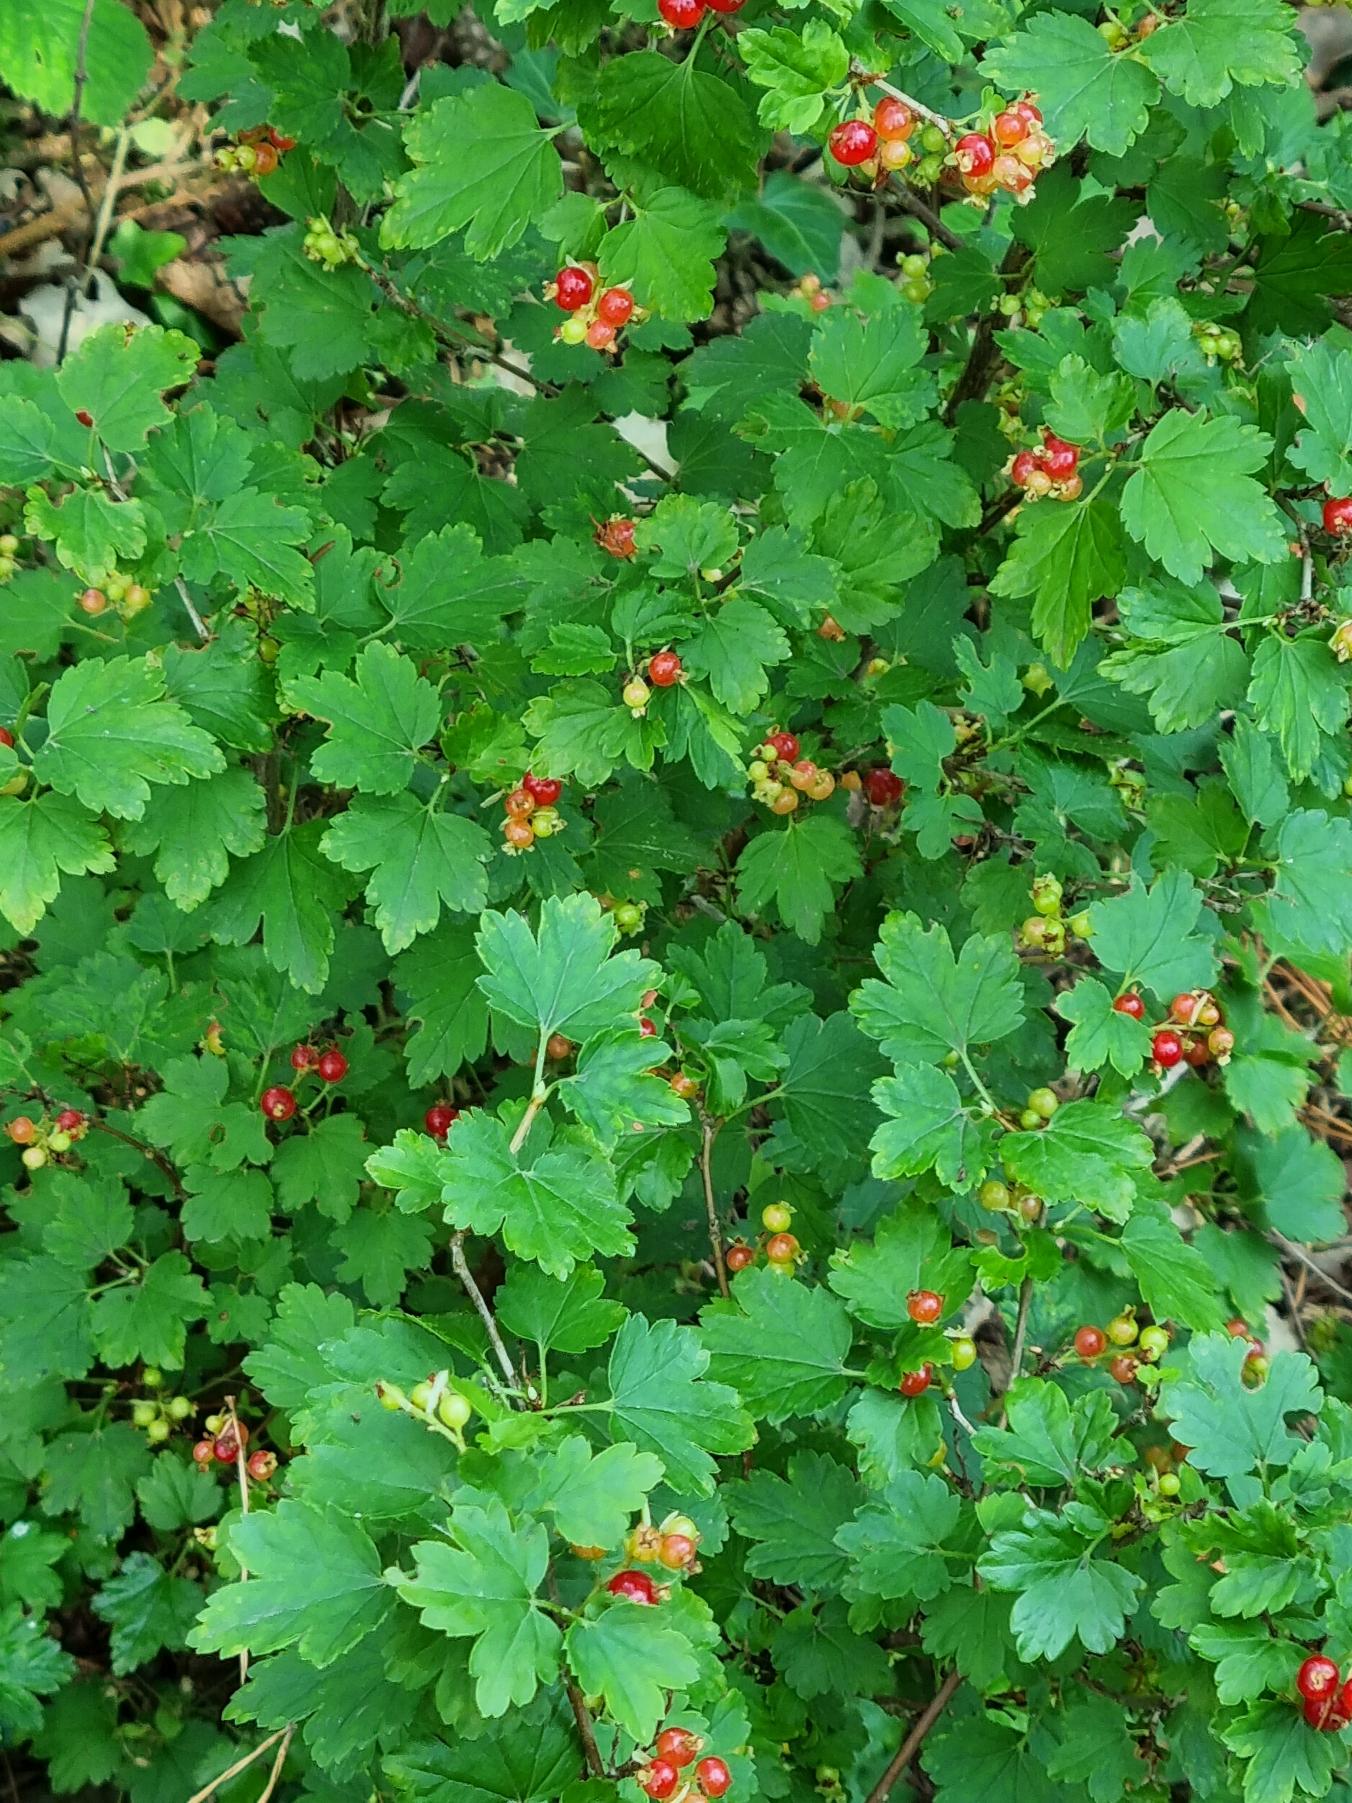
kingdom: Plantae
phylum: Tracheophyta
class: Magnoliopsida
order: Saxifragales
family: Grossulariaceae
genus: Ribes
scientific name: Ribes alpinum
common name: Fjeld-ribs
